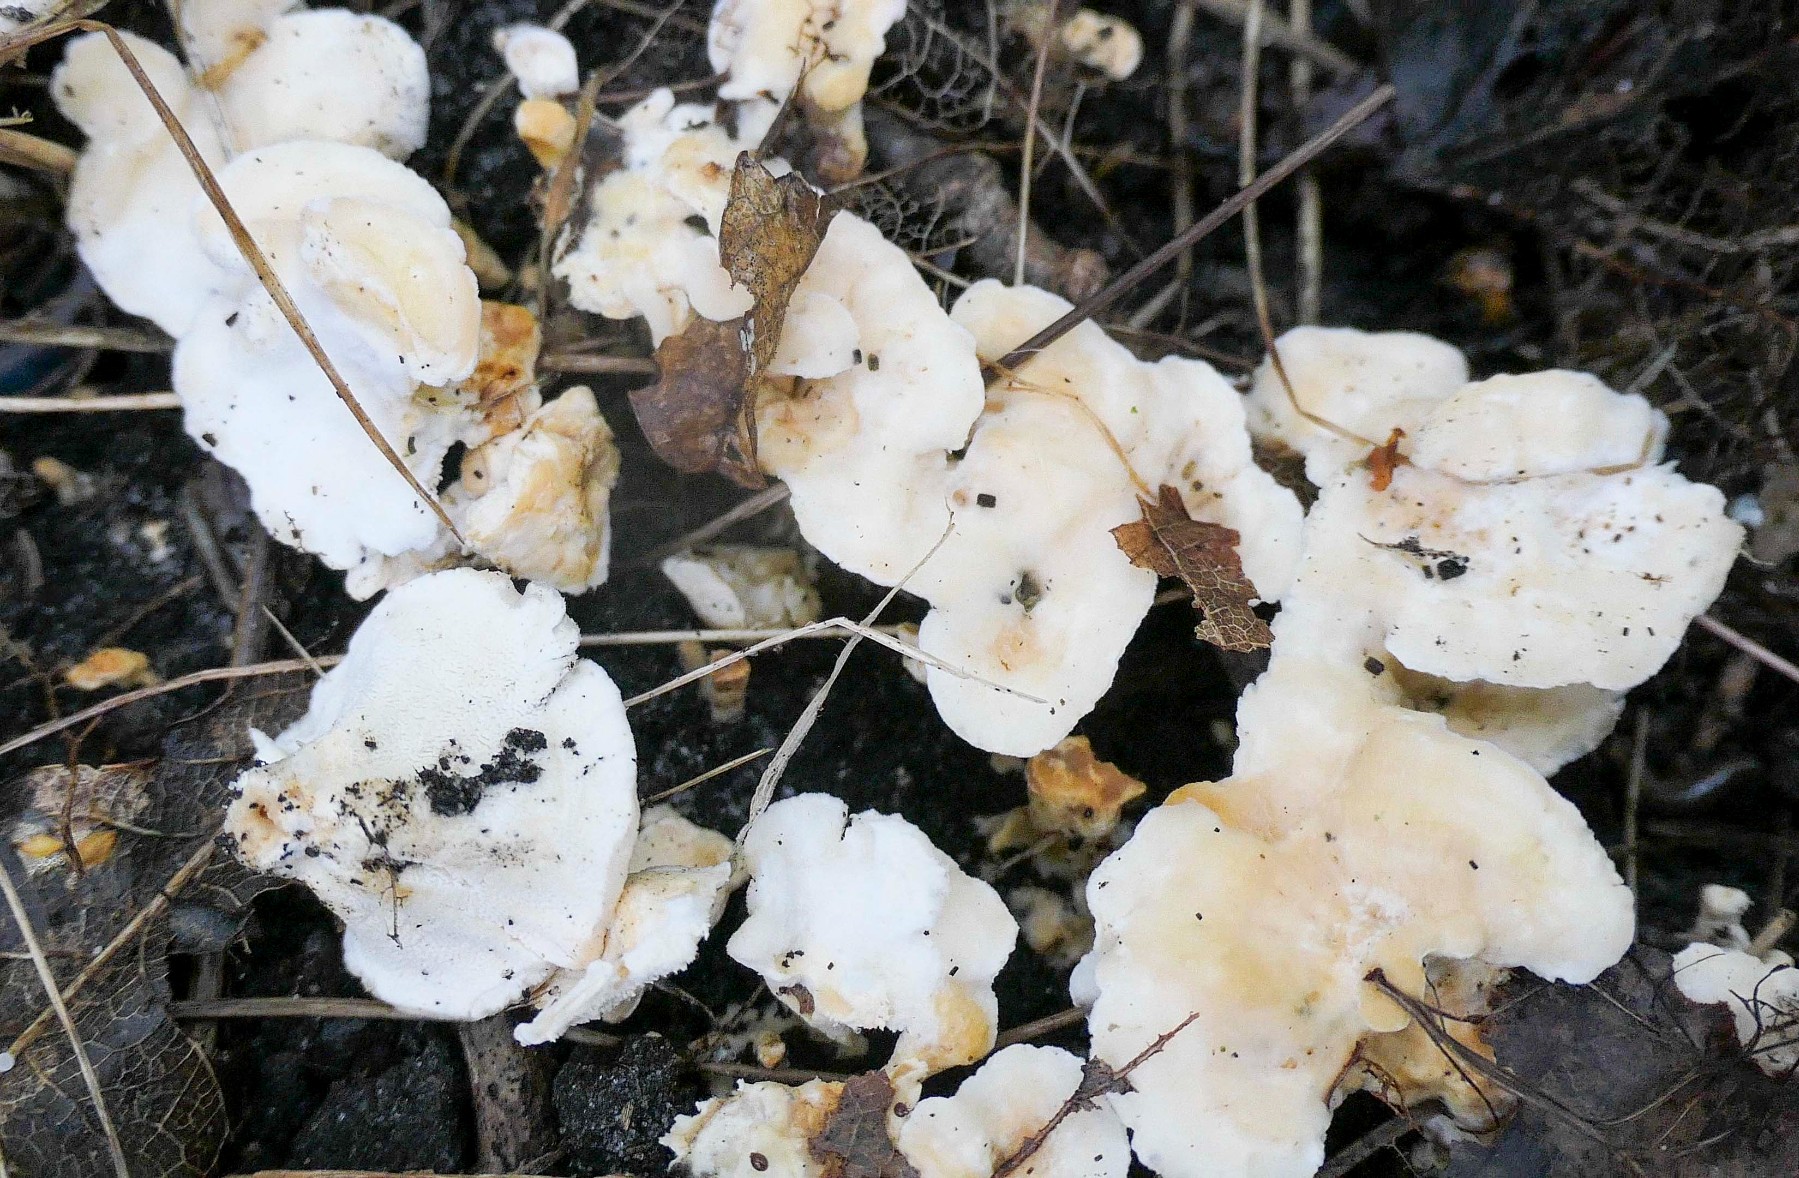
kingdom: Fungi
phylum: Basidiomycota
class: Agaricomycetes
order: Cantharellales
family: Hydnaceae
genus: Sistotrema
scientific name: Sistotrema confluens
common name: stilket kroneskorpe
